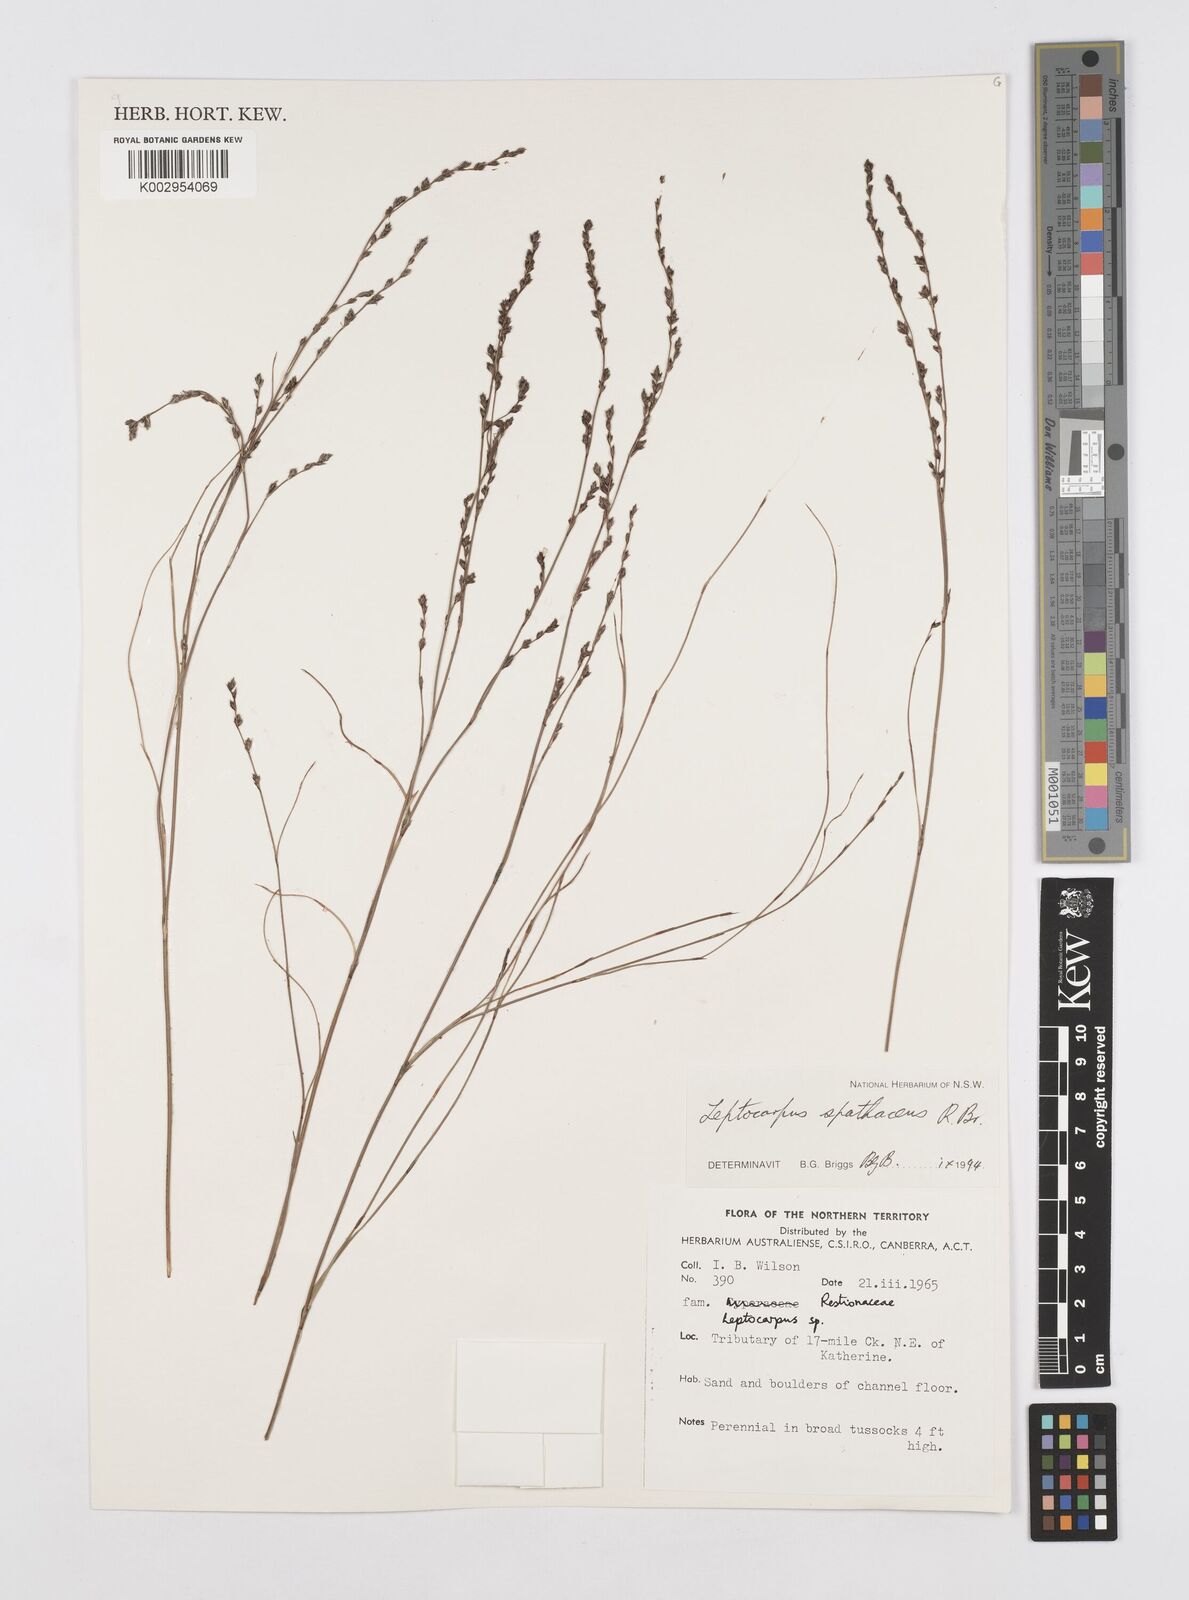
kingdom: Plantae
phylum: Tracheophyta
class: Liliopsida
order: Poales
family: Restionaceae
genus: Dapsilanthus
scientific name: Dapsilanthus spathaceus
